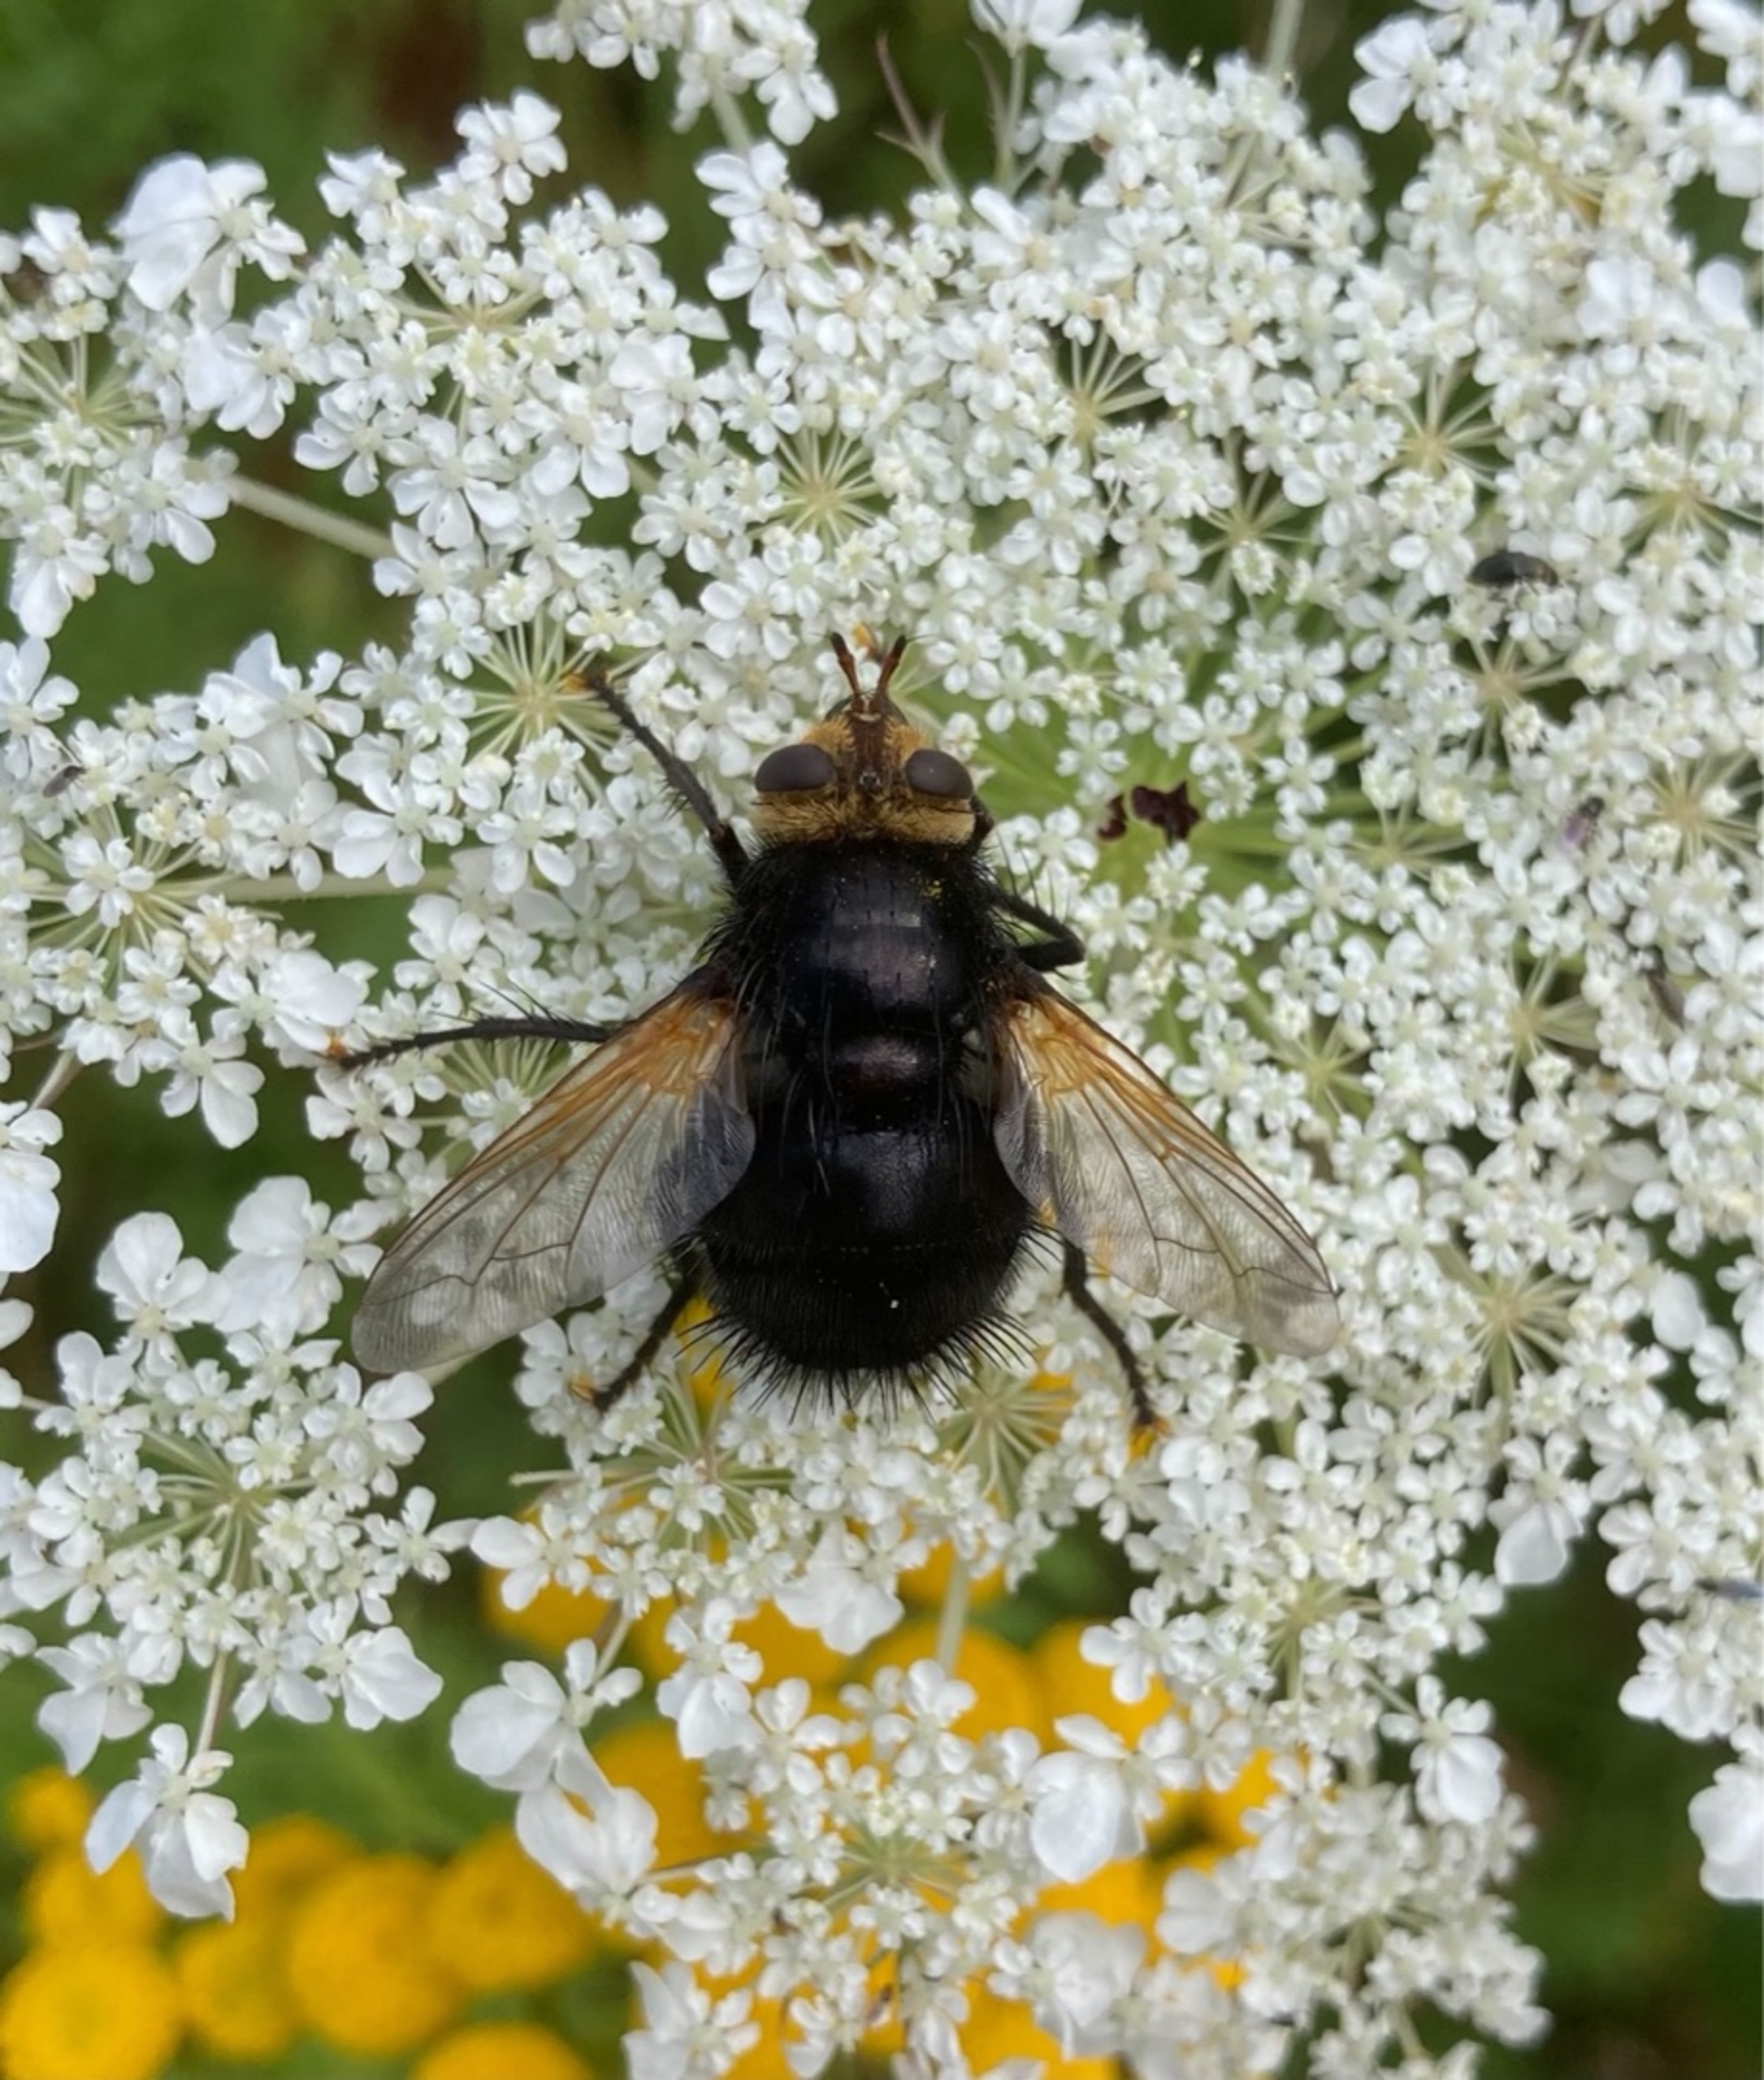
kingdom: Animalia
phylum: Arthropoda
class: Insecta
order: Diptera
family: Tachinidae
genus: Tachina
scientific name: Tachina grossa
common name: Kæmpefluen Harald
